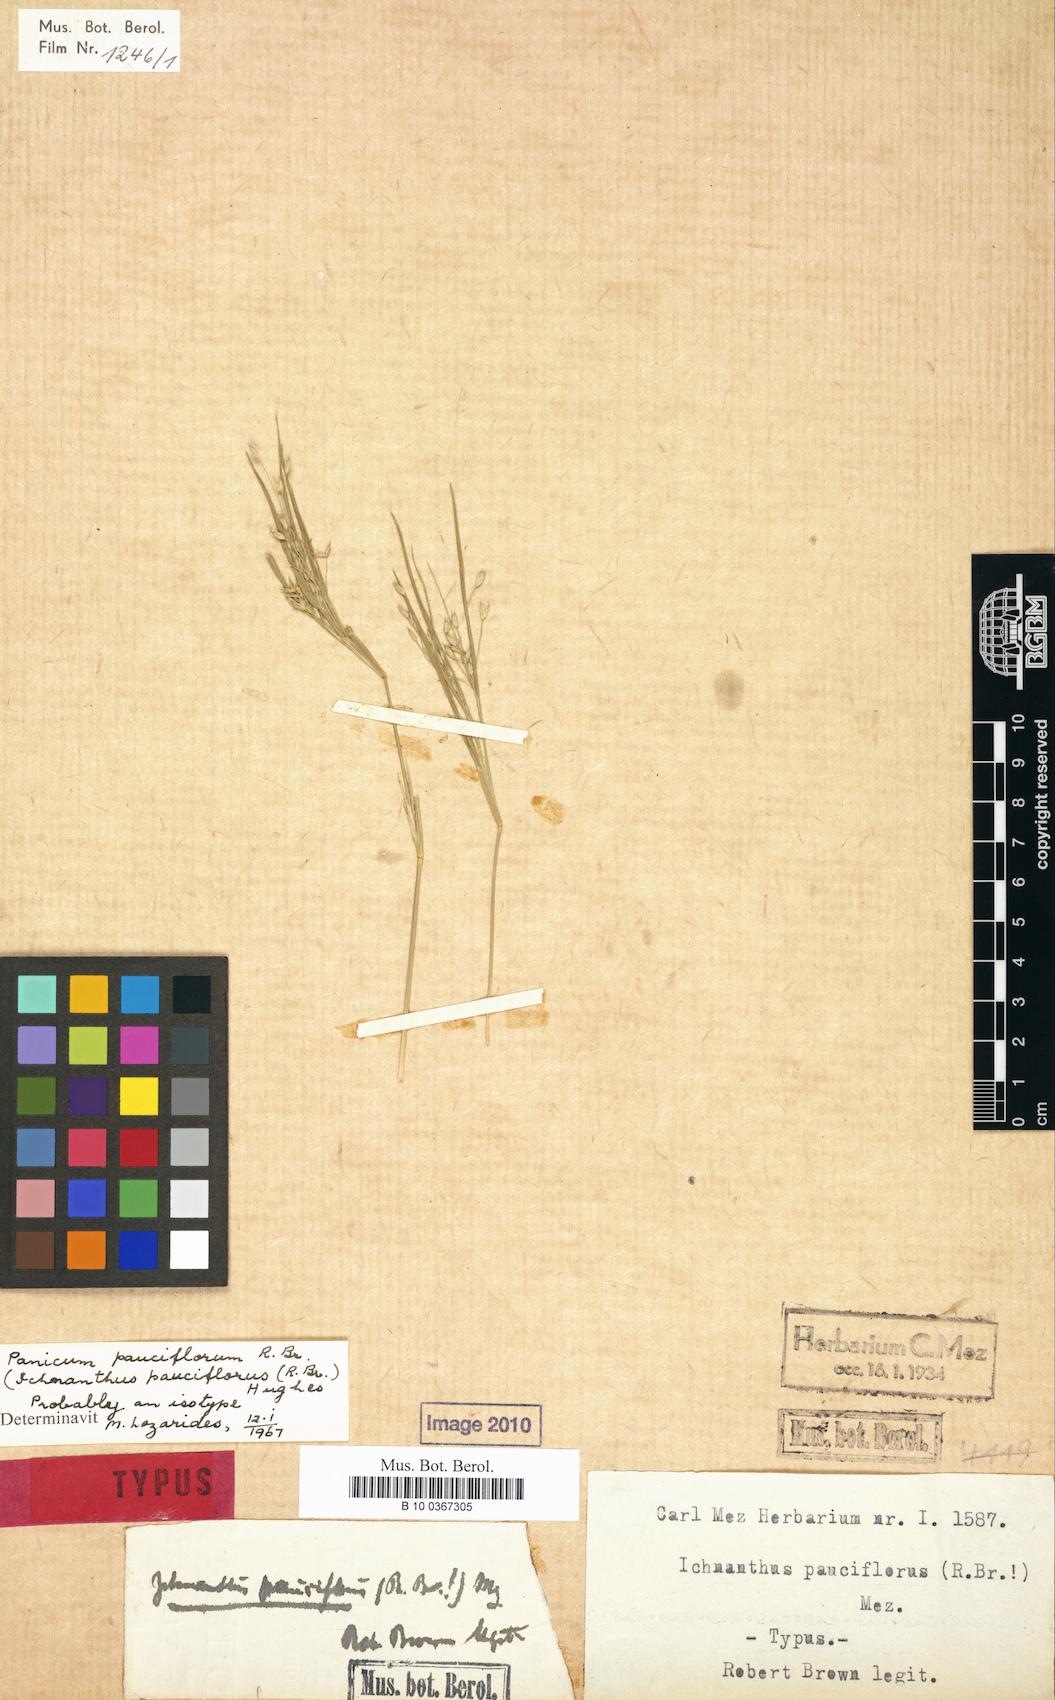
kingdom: Plantae
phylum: Tracheophyta
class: Liliopsida
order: Poales
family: Poaceae
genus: Panicum
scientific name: Panicum pauciflorum
